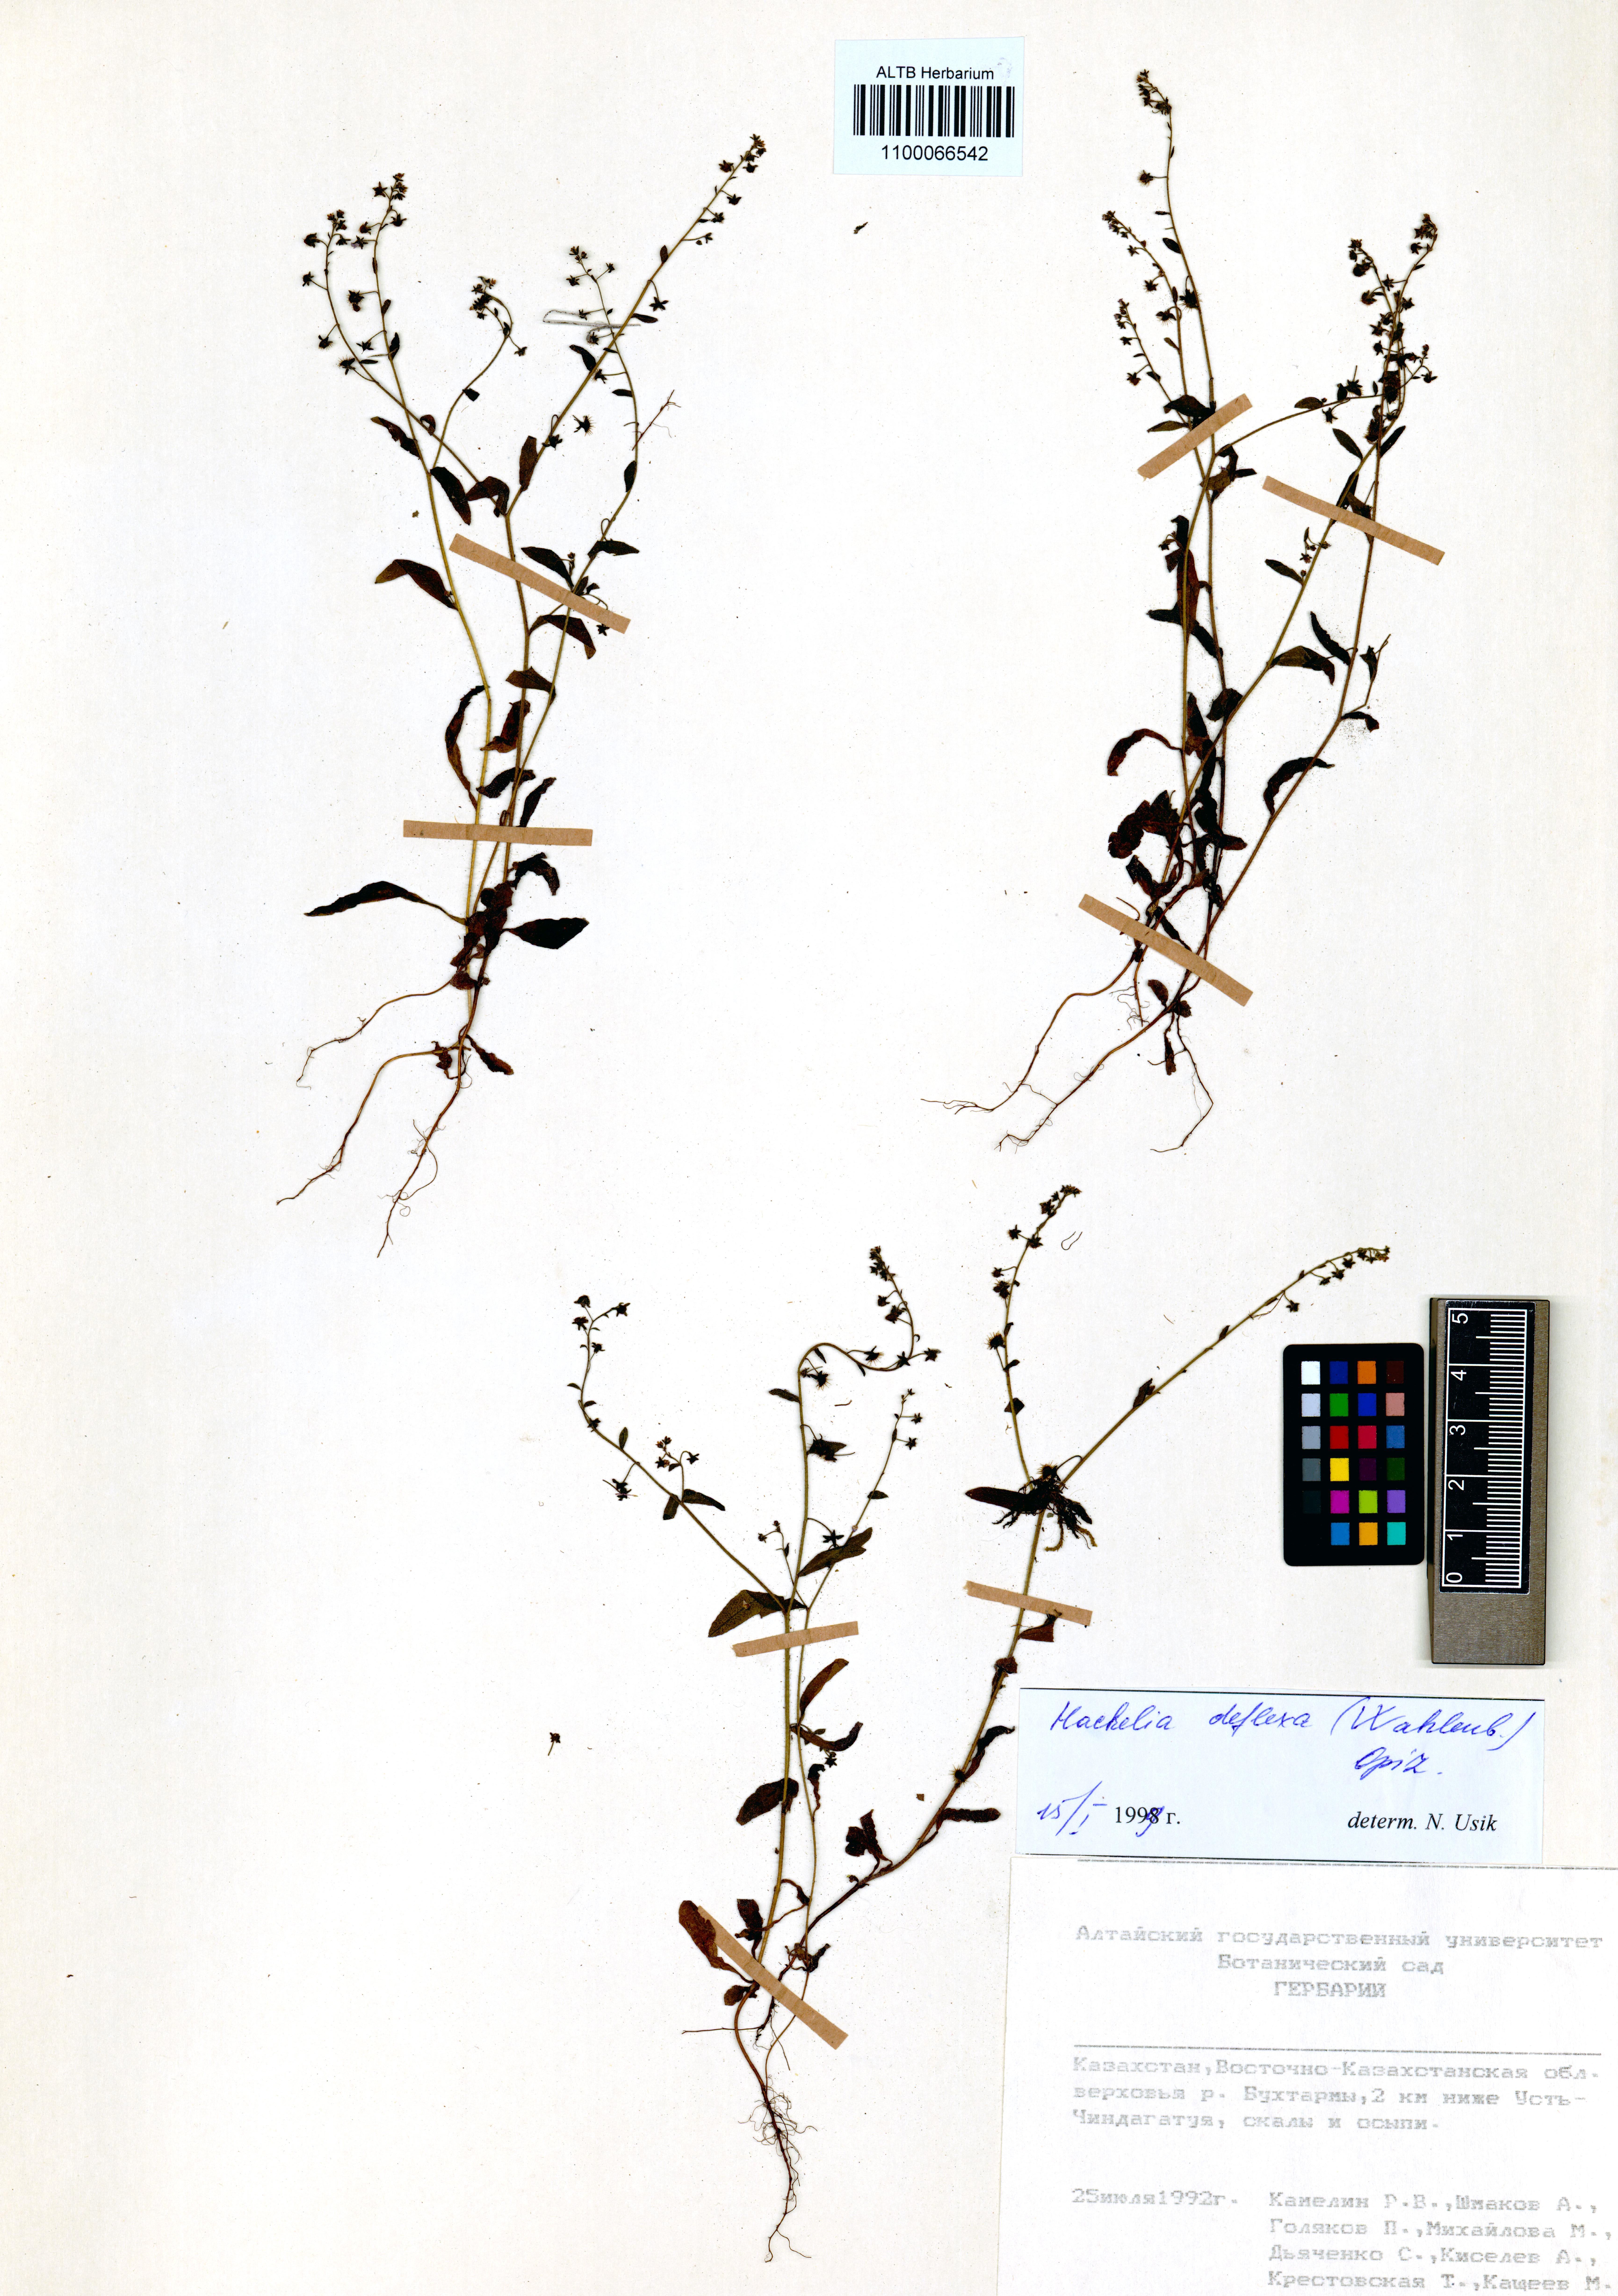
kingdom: Plantae
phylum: Tracheophyta
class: Magnoliopsida
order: Boraginales
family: Boraginaceae
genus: Hackelia
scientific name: Hackelia deflexa
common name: Nodding stickseed
